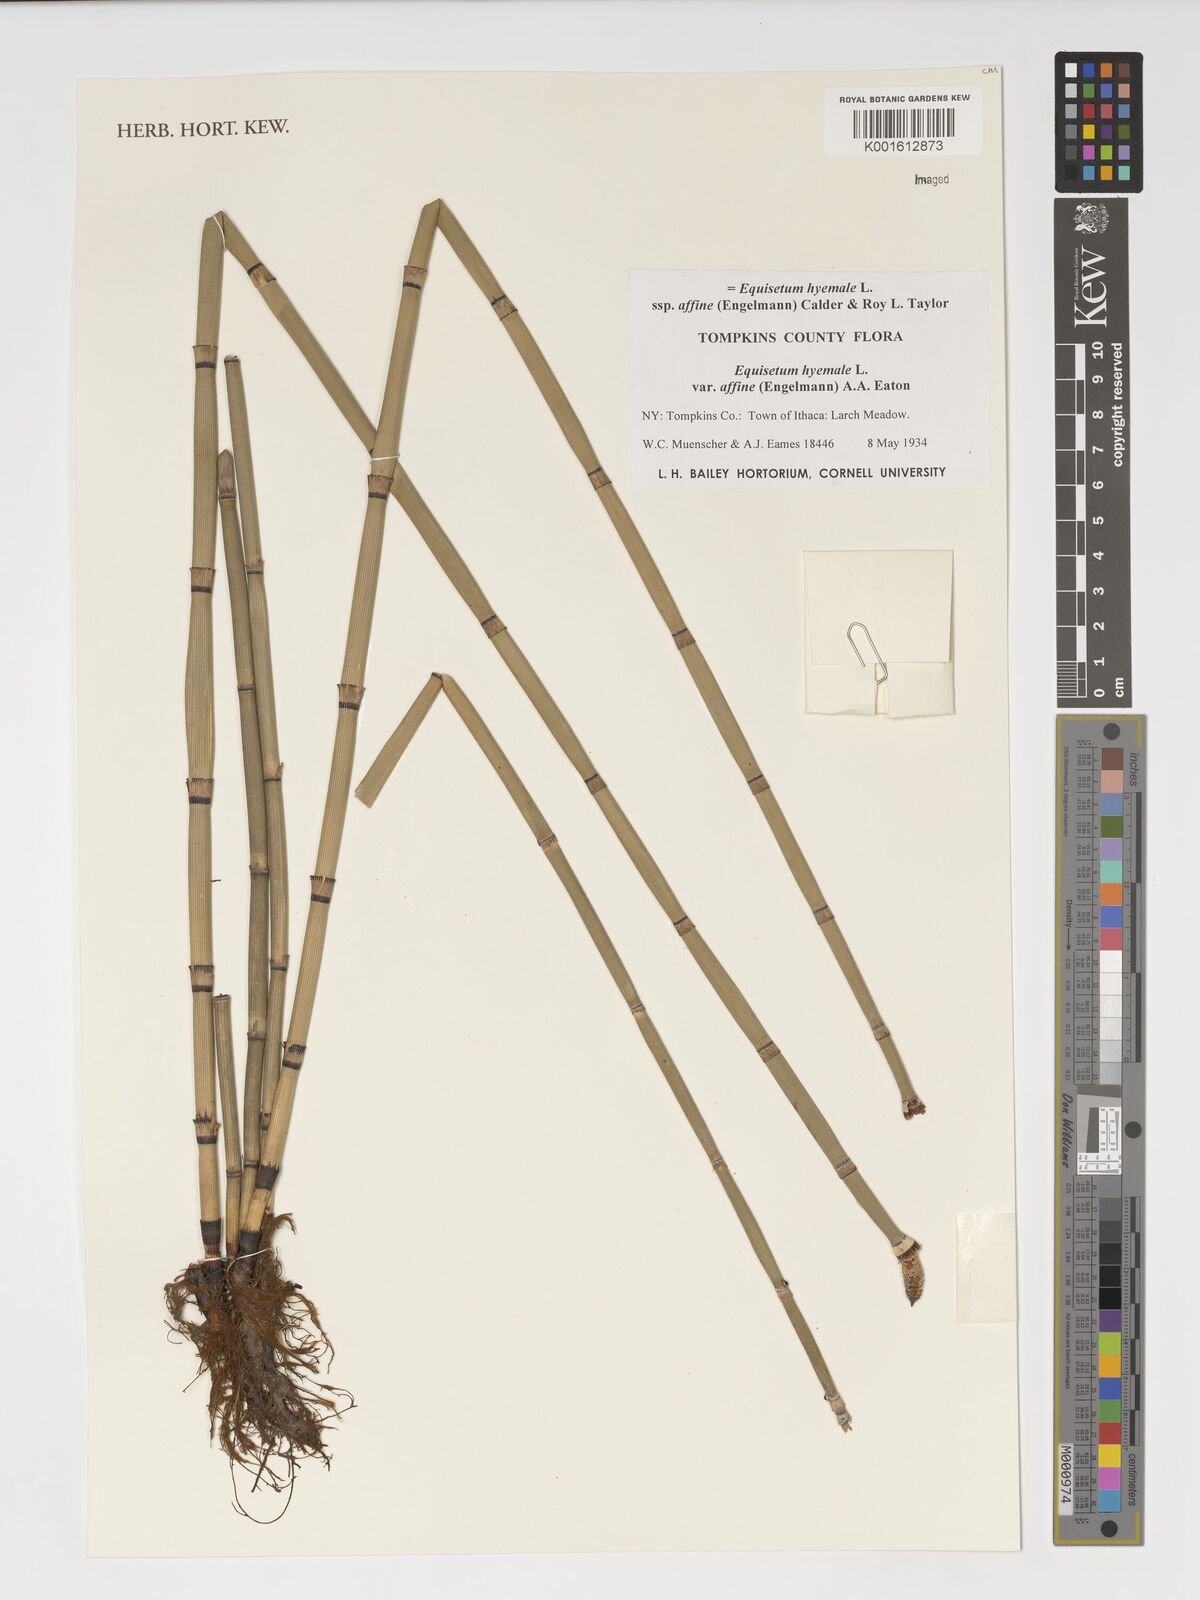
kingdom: Plantae
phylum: Tracheophyta
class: Polypodiopsida
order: Equisetales
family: Equisetaceae
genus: Equisetum
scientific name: Equisetum praealtum
